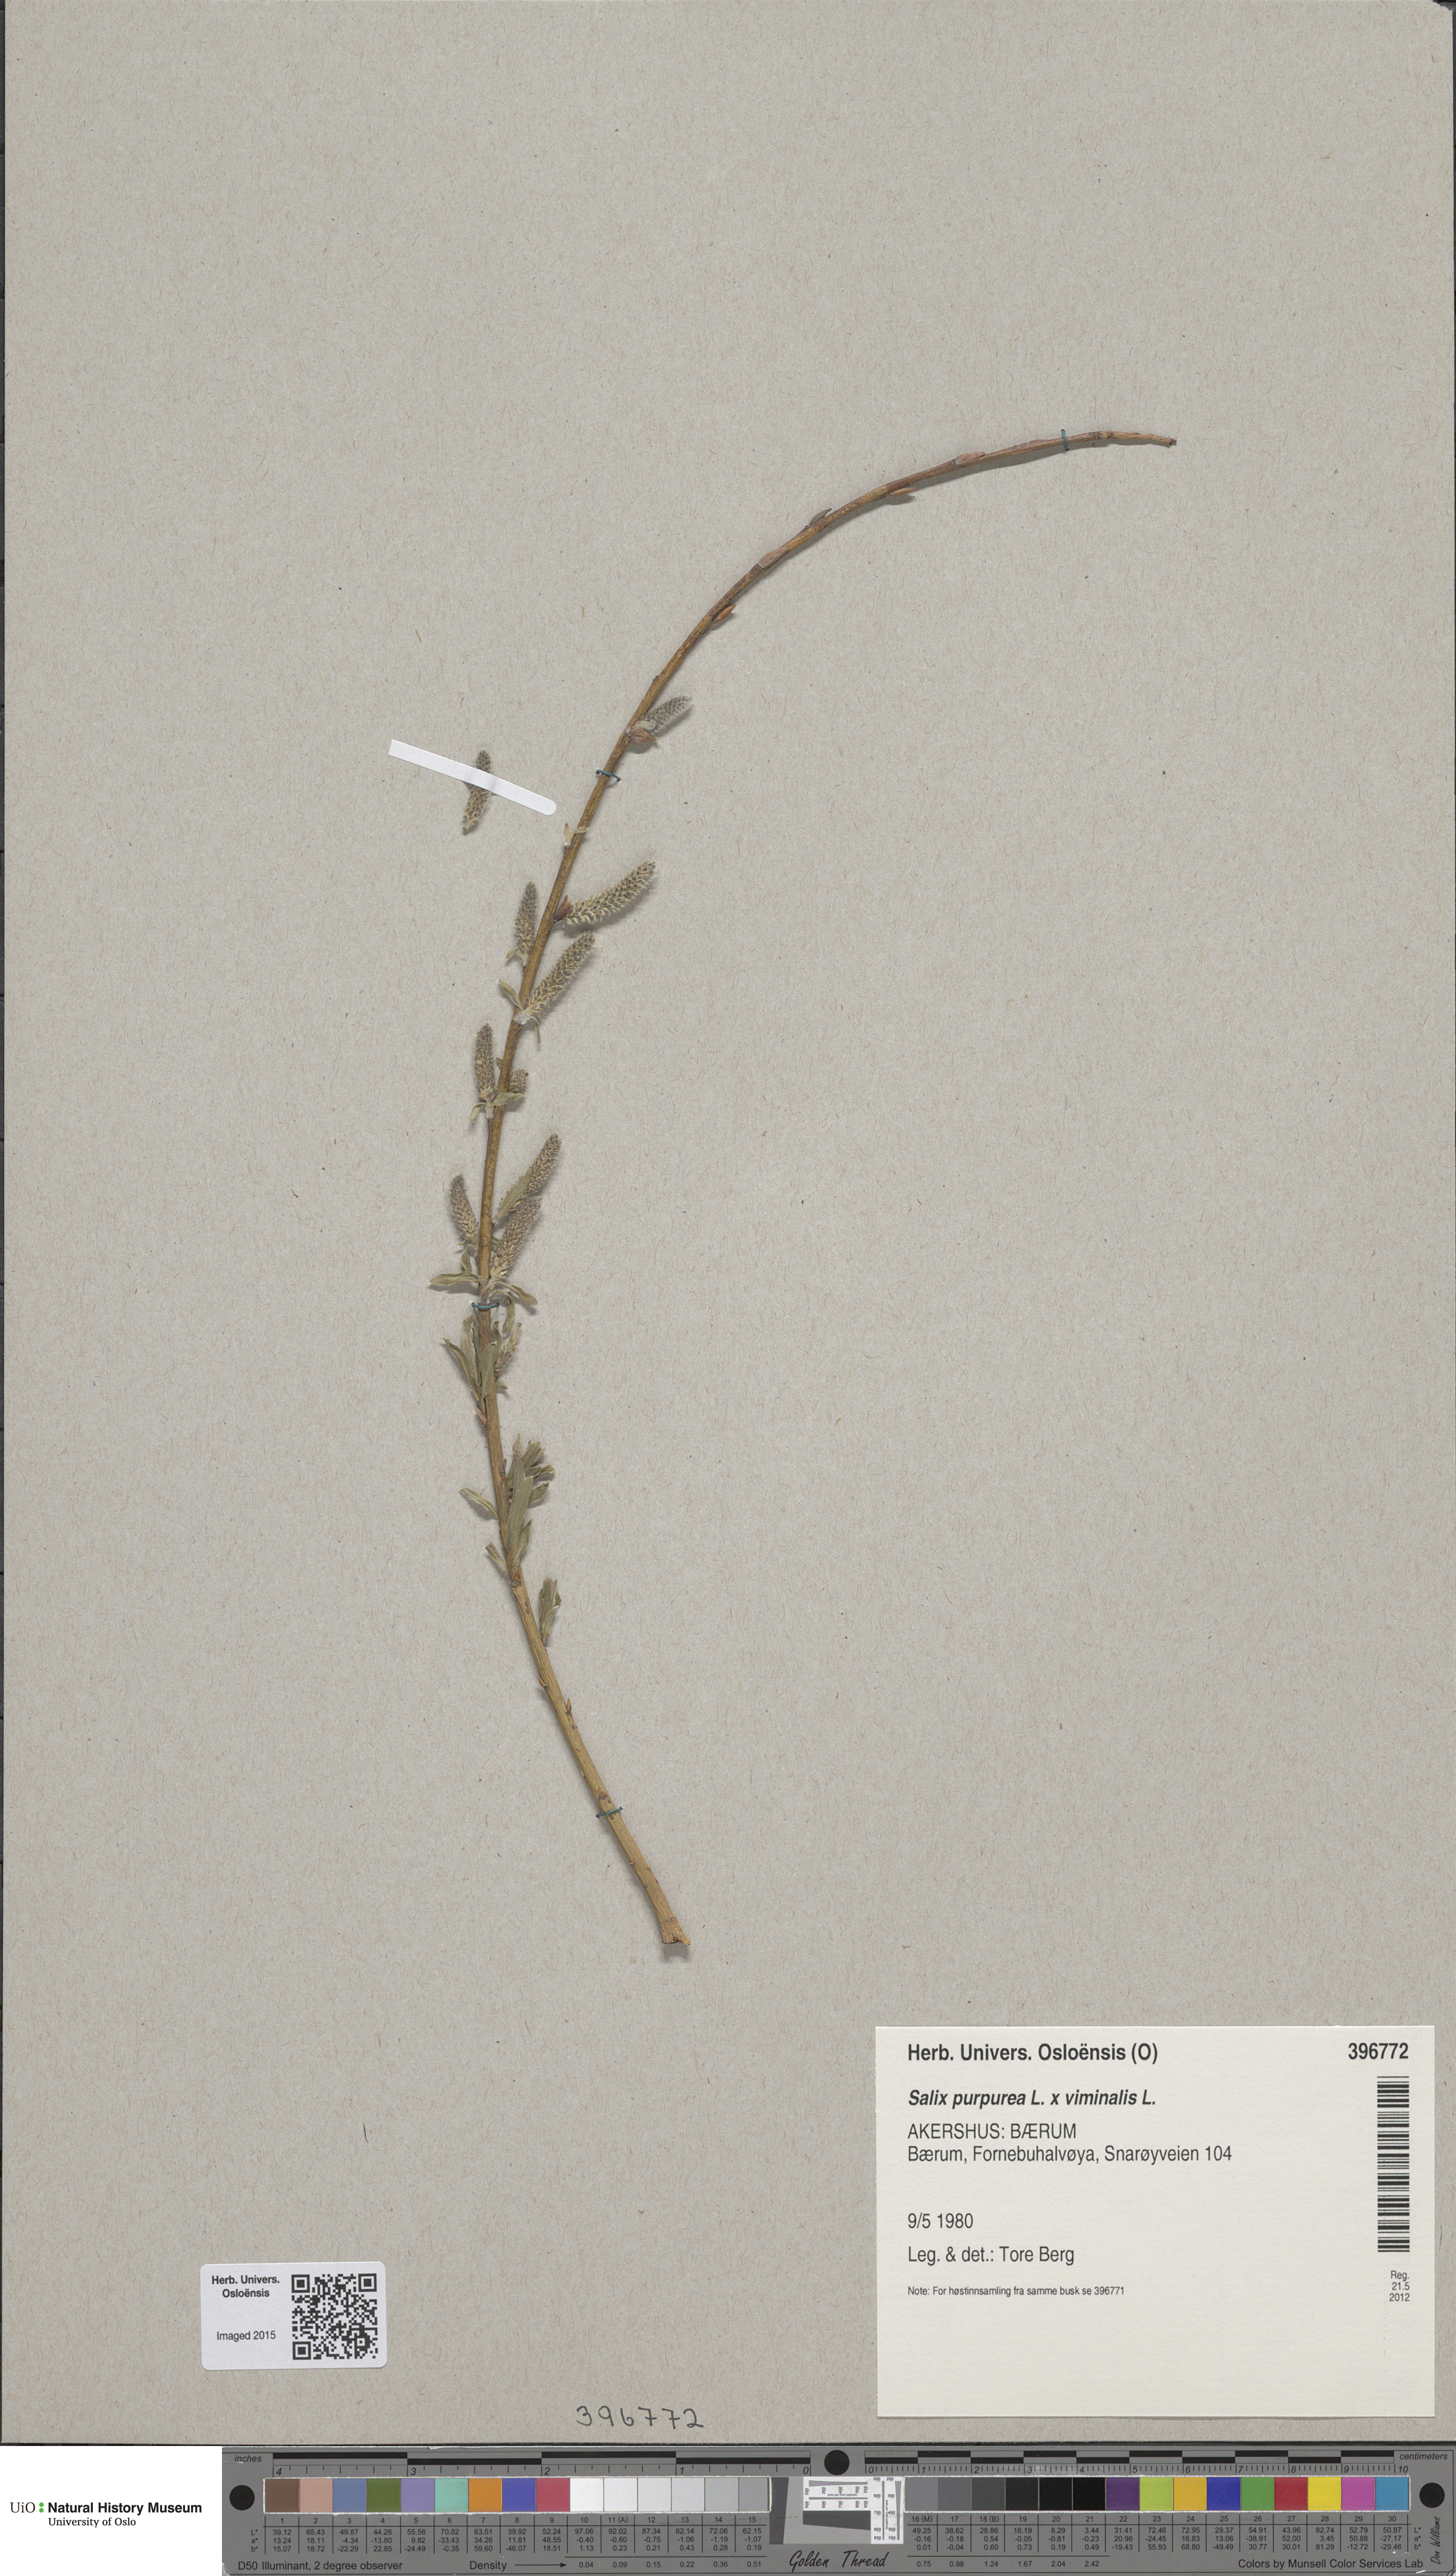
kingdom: Plantae
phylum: Tracheophyta
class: Magnoliopsida
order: Malpighiales
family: Salicaceae
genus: Salix
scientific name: Salix
